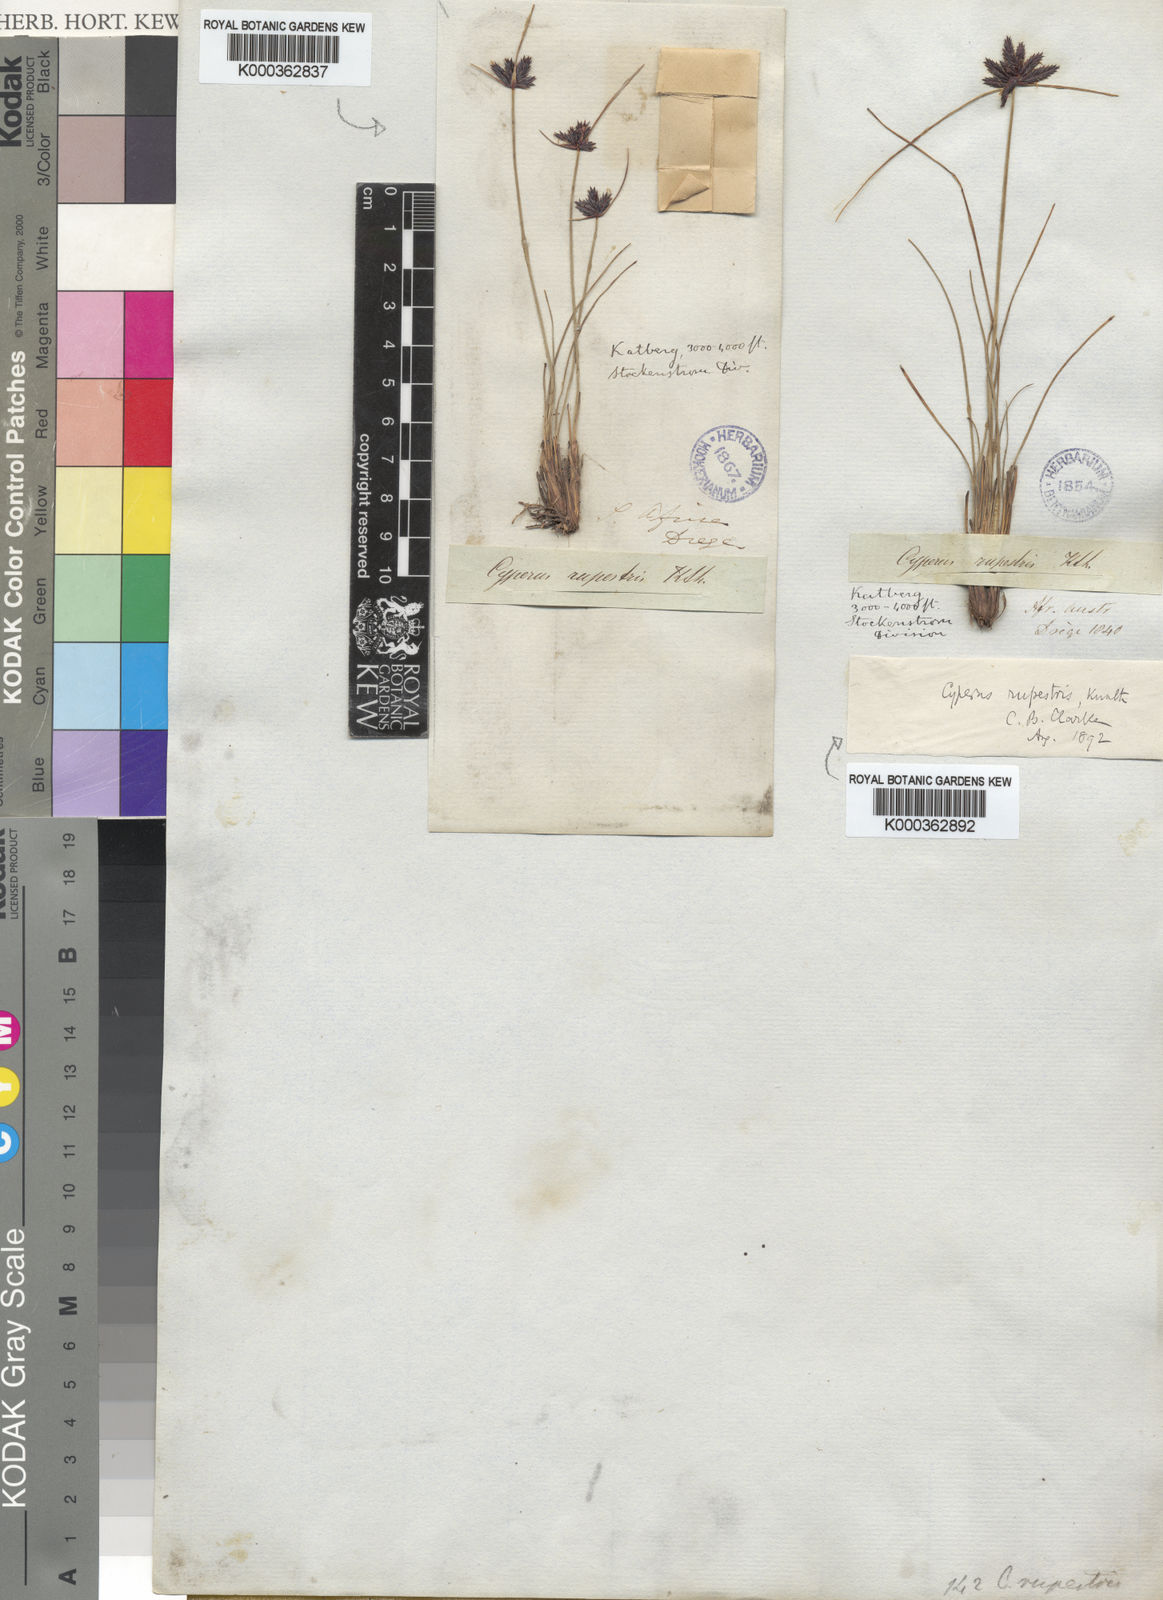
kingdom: Plantae
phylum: Tracheophyta
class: Liliopsida
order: Poales
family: Cyperaceae
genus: Cyperus
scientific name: Cyperus rupestris
